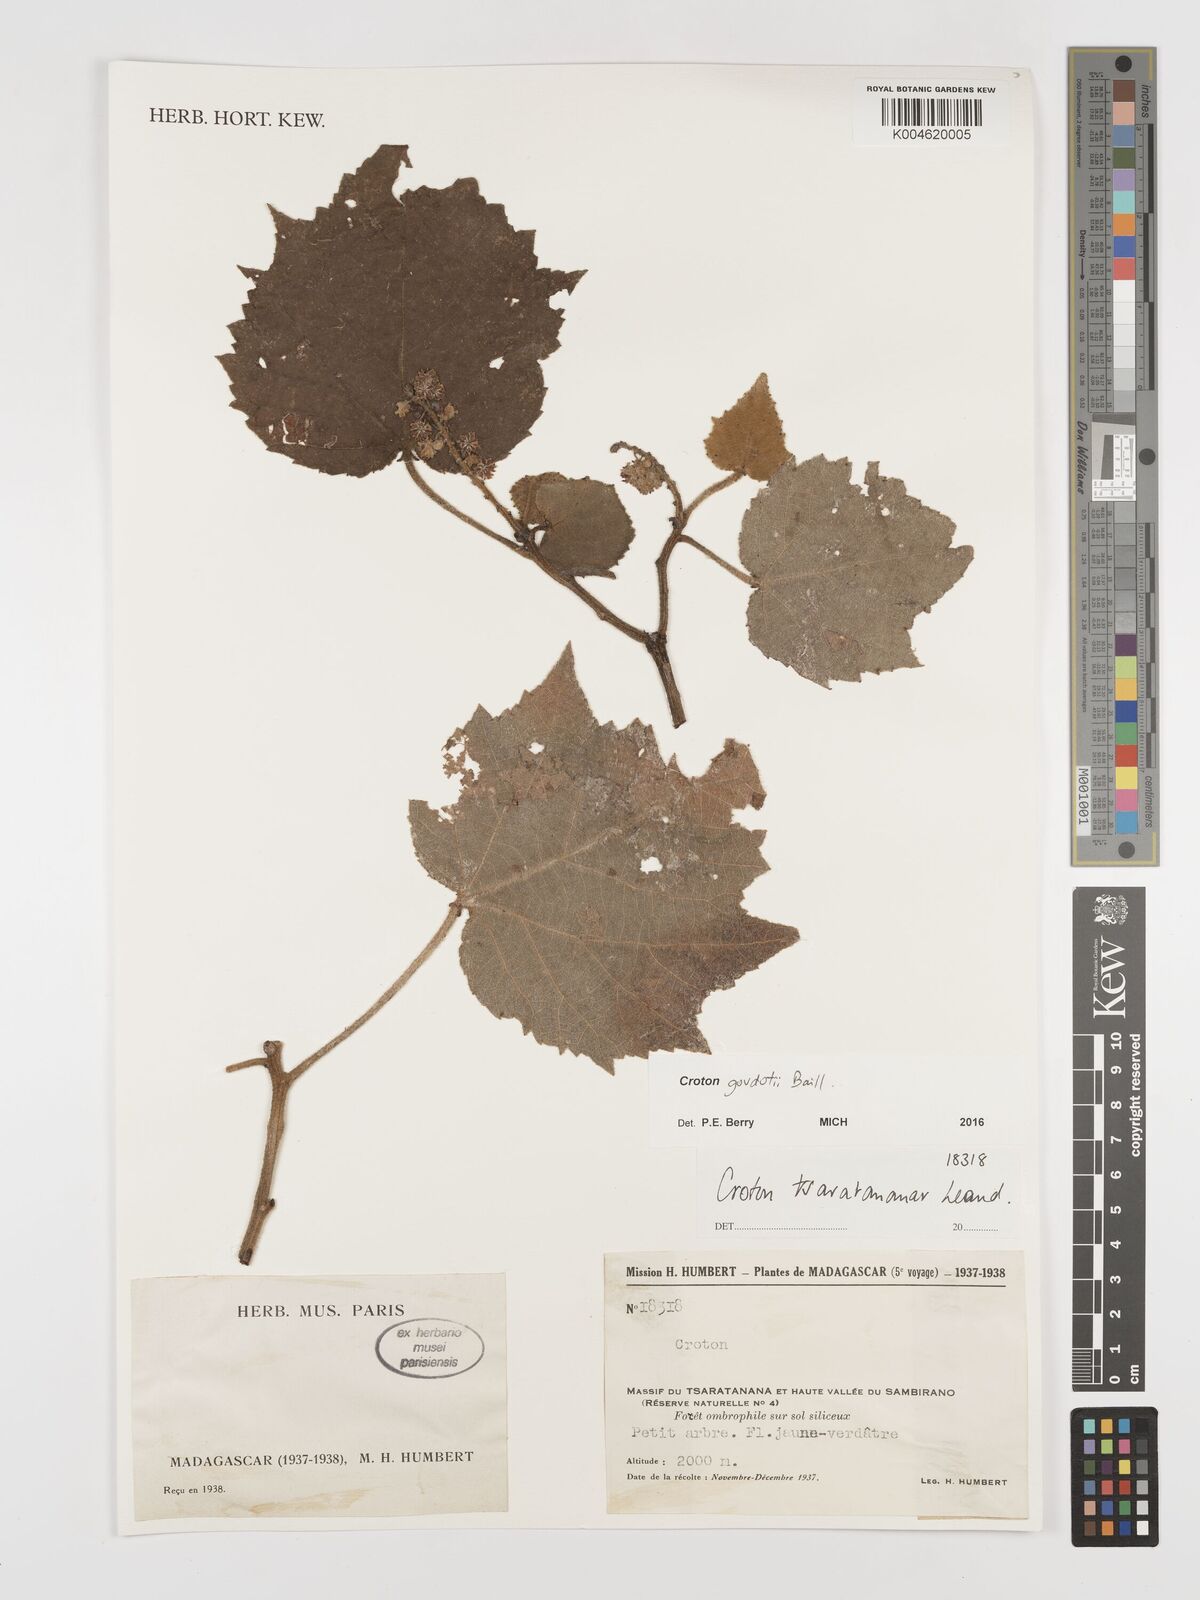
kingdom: Plantae
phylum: Tracheophyta
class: Magnoliopsida
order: Malpighiales
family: Euphorbiaceae
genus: Croton
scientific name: Croton goudotii
